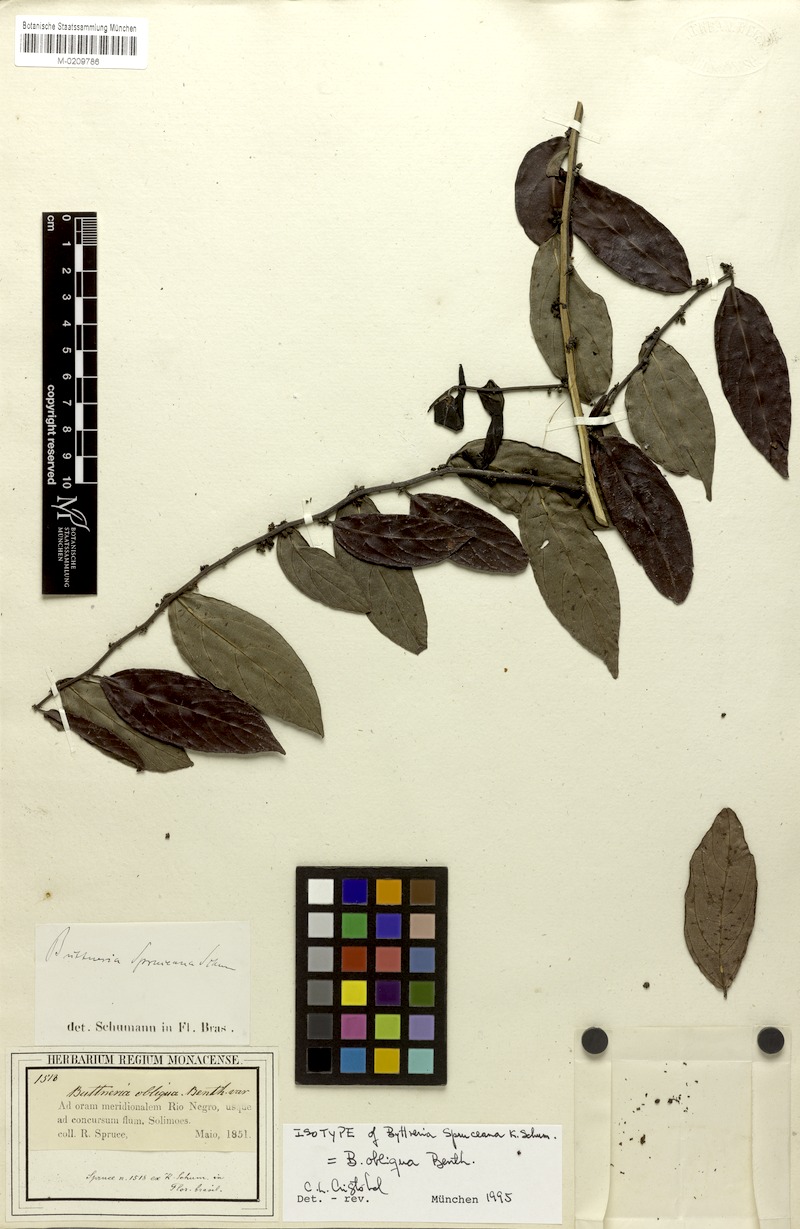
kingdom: Plantae
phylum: Tracheophyta
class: Magnoliopsida
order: Malvales
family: Malvaceae
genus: Byttneria
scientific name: Byttneria obliqua
